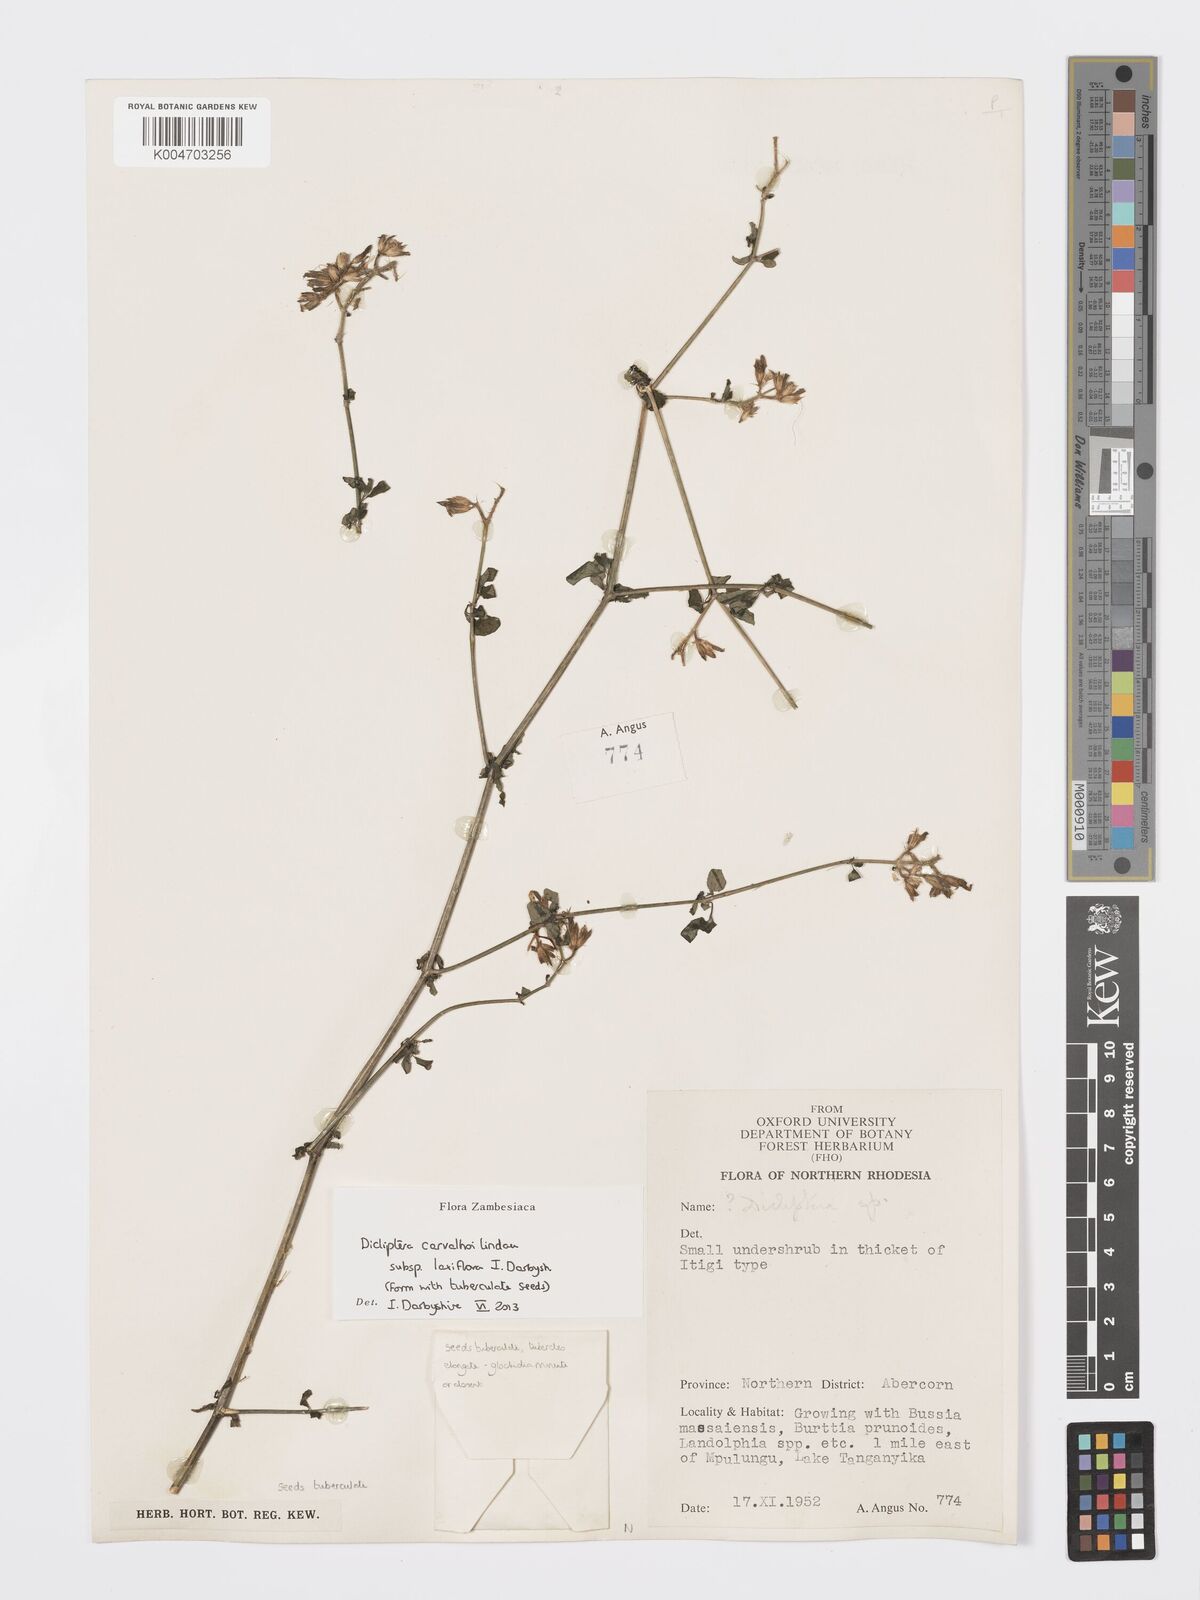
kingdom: Plantae
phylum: Tracheophyta
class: Magnoliopsida
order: Lamiales
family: Acanthaceae
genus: Dicliptera
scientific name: Dicliptera carvalhoi
